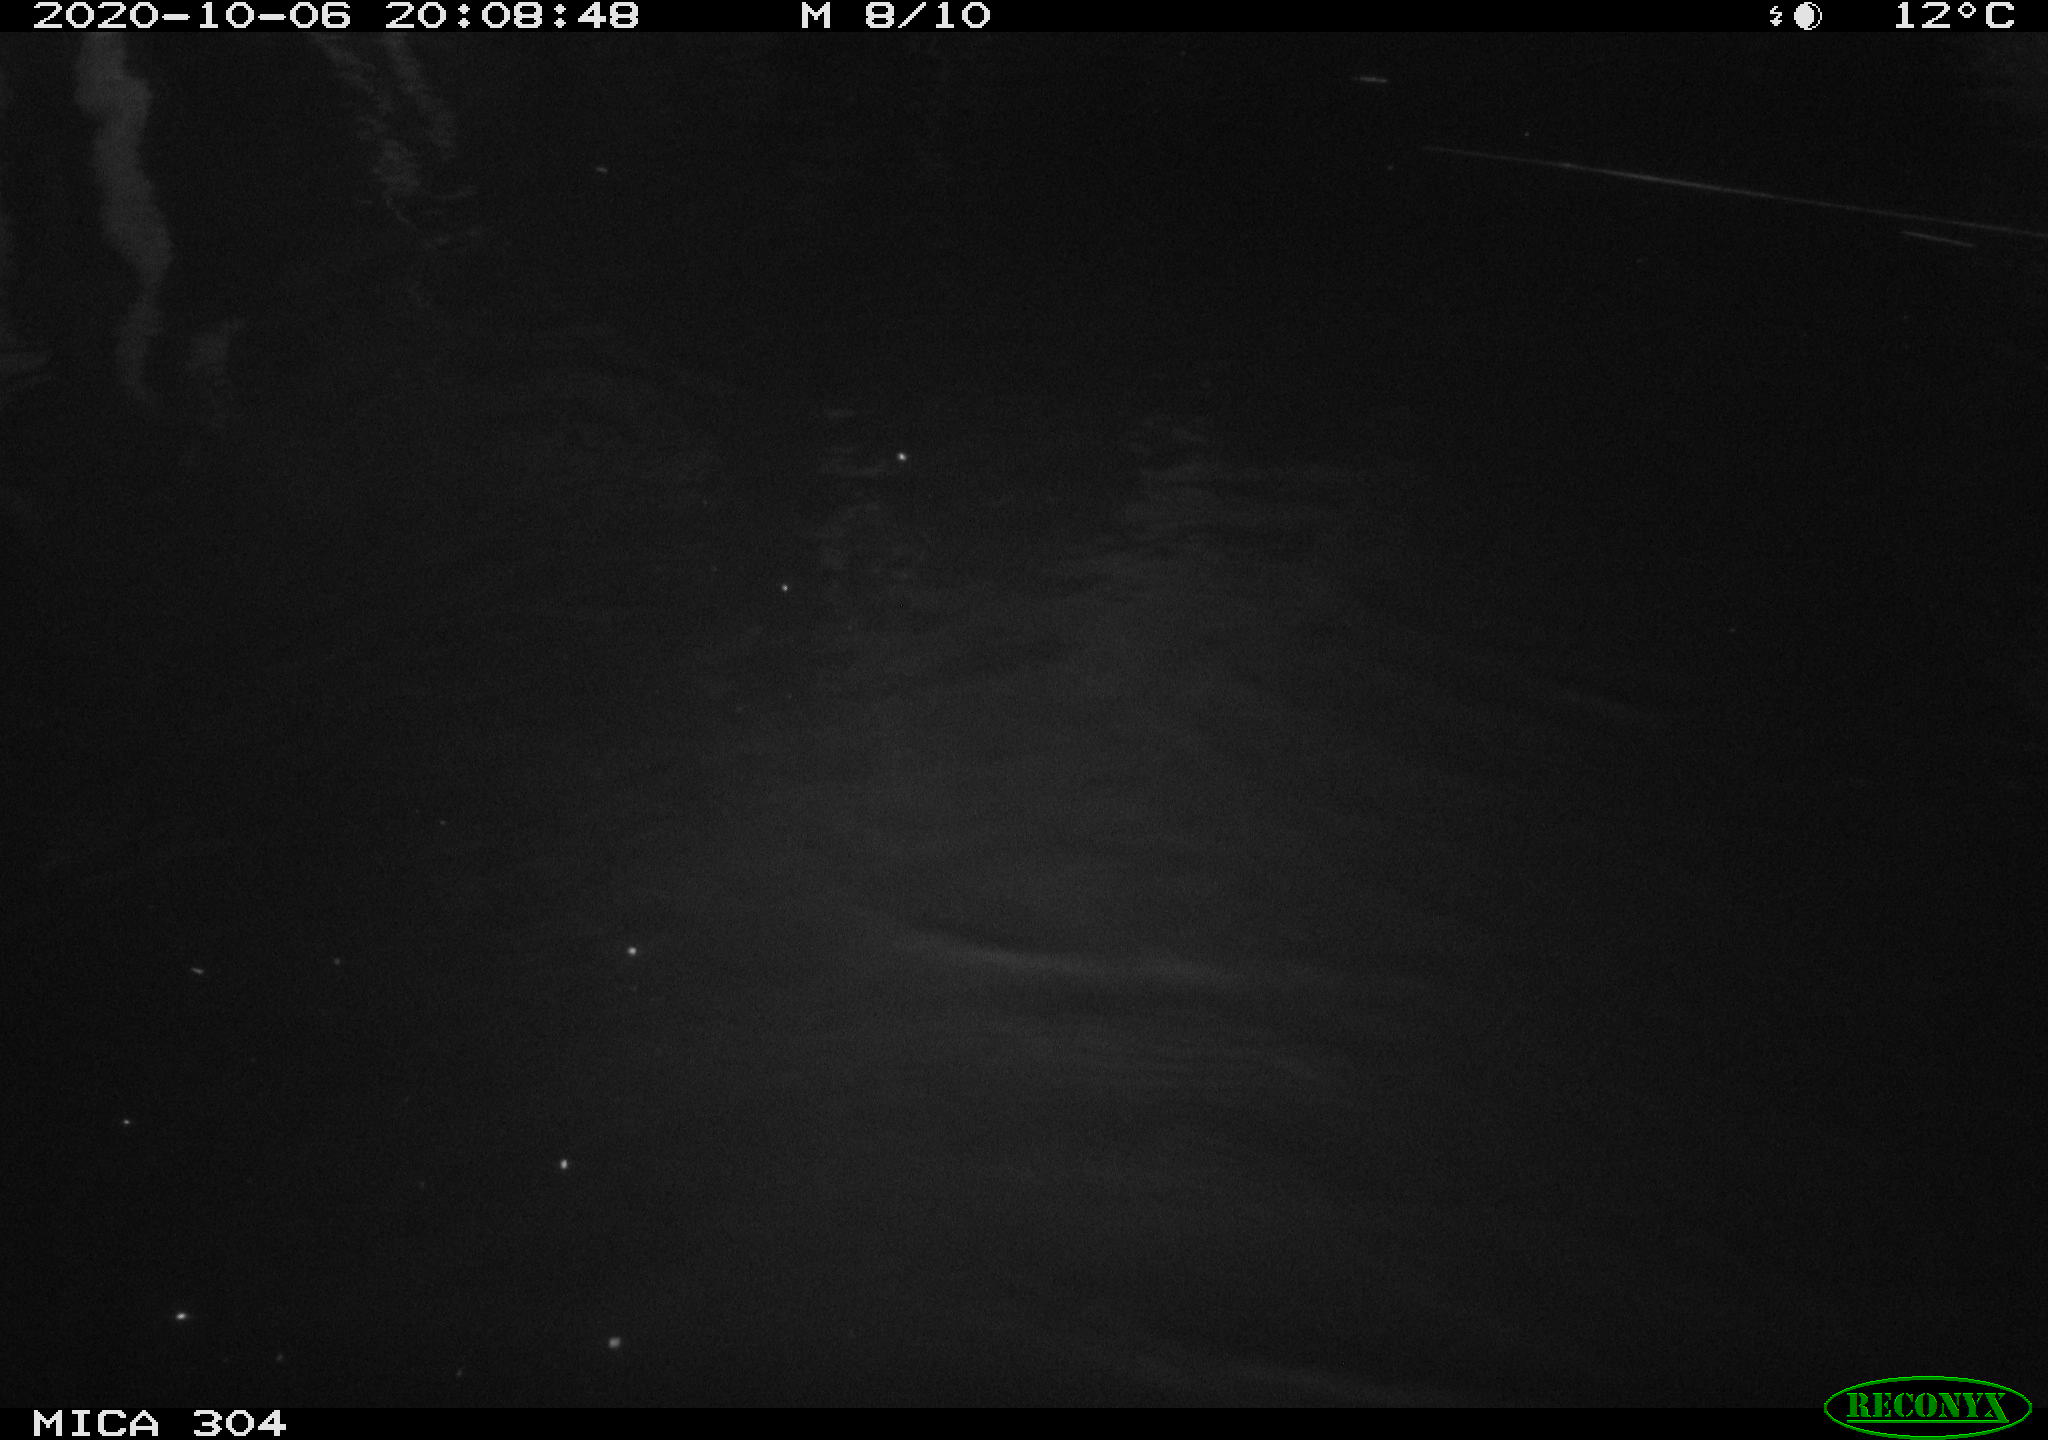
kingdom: Animalia
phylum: Chordata
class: Mammalia
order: Rodentia
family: Cricetidae
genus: Ondatra
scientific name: Ondatra zibethicus
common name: Muskrat
